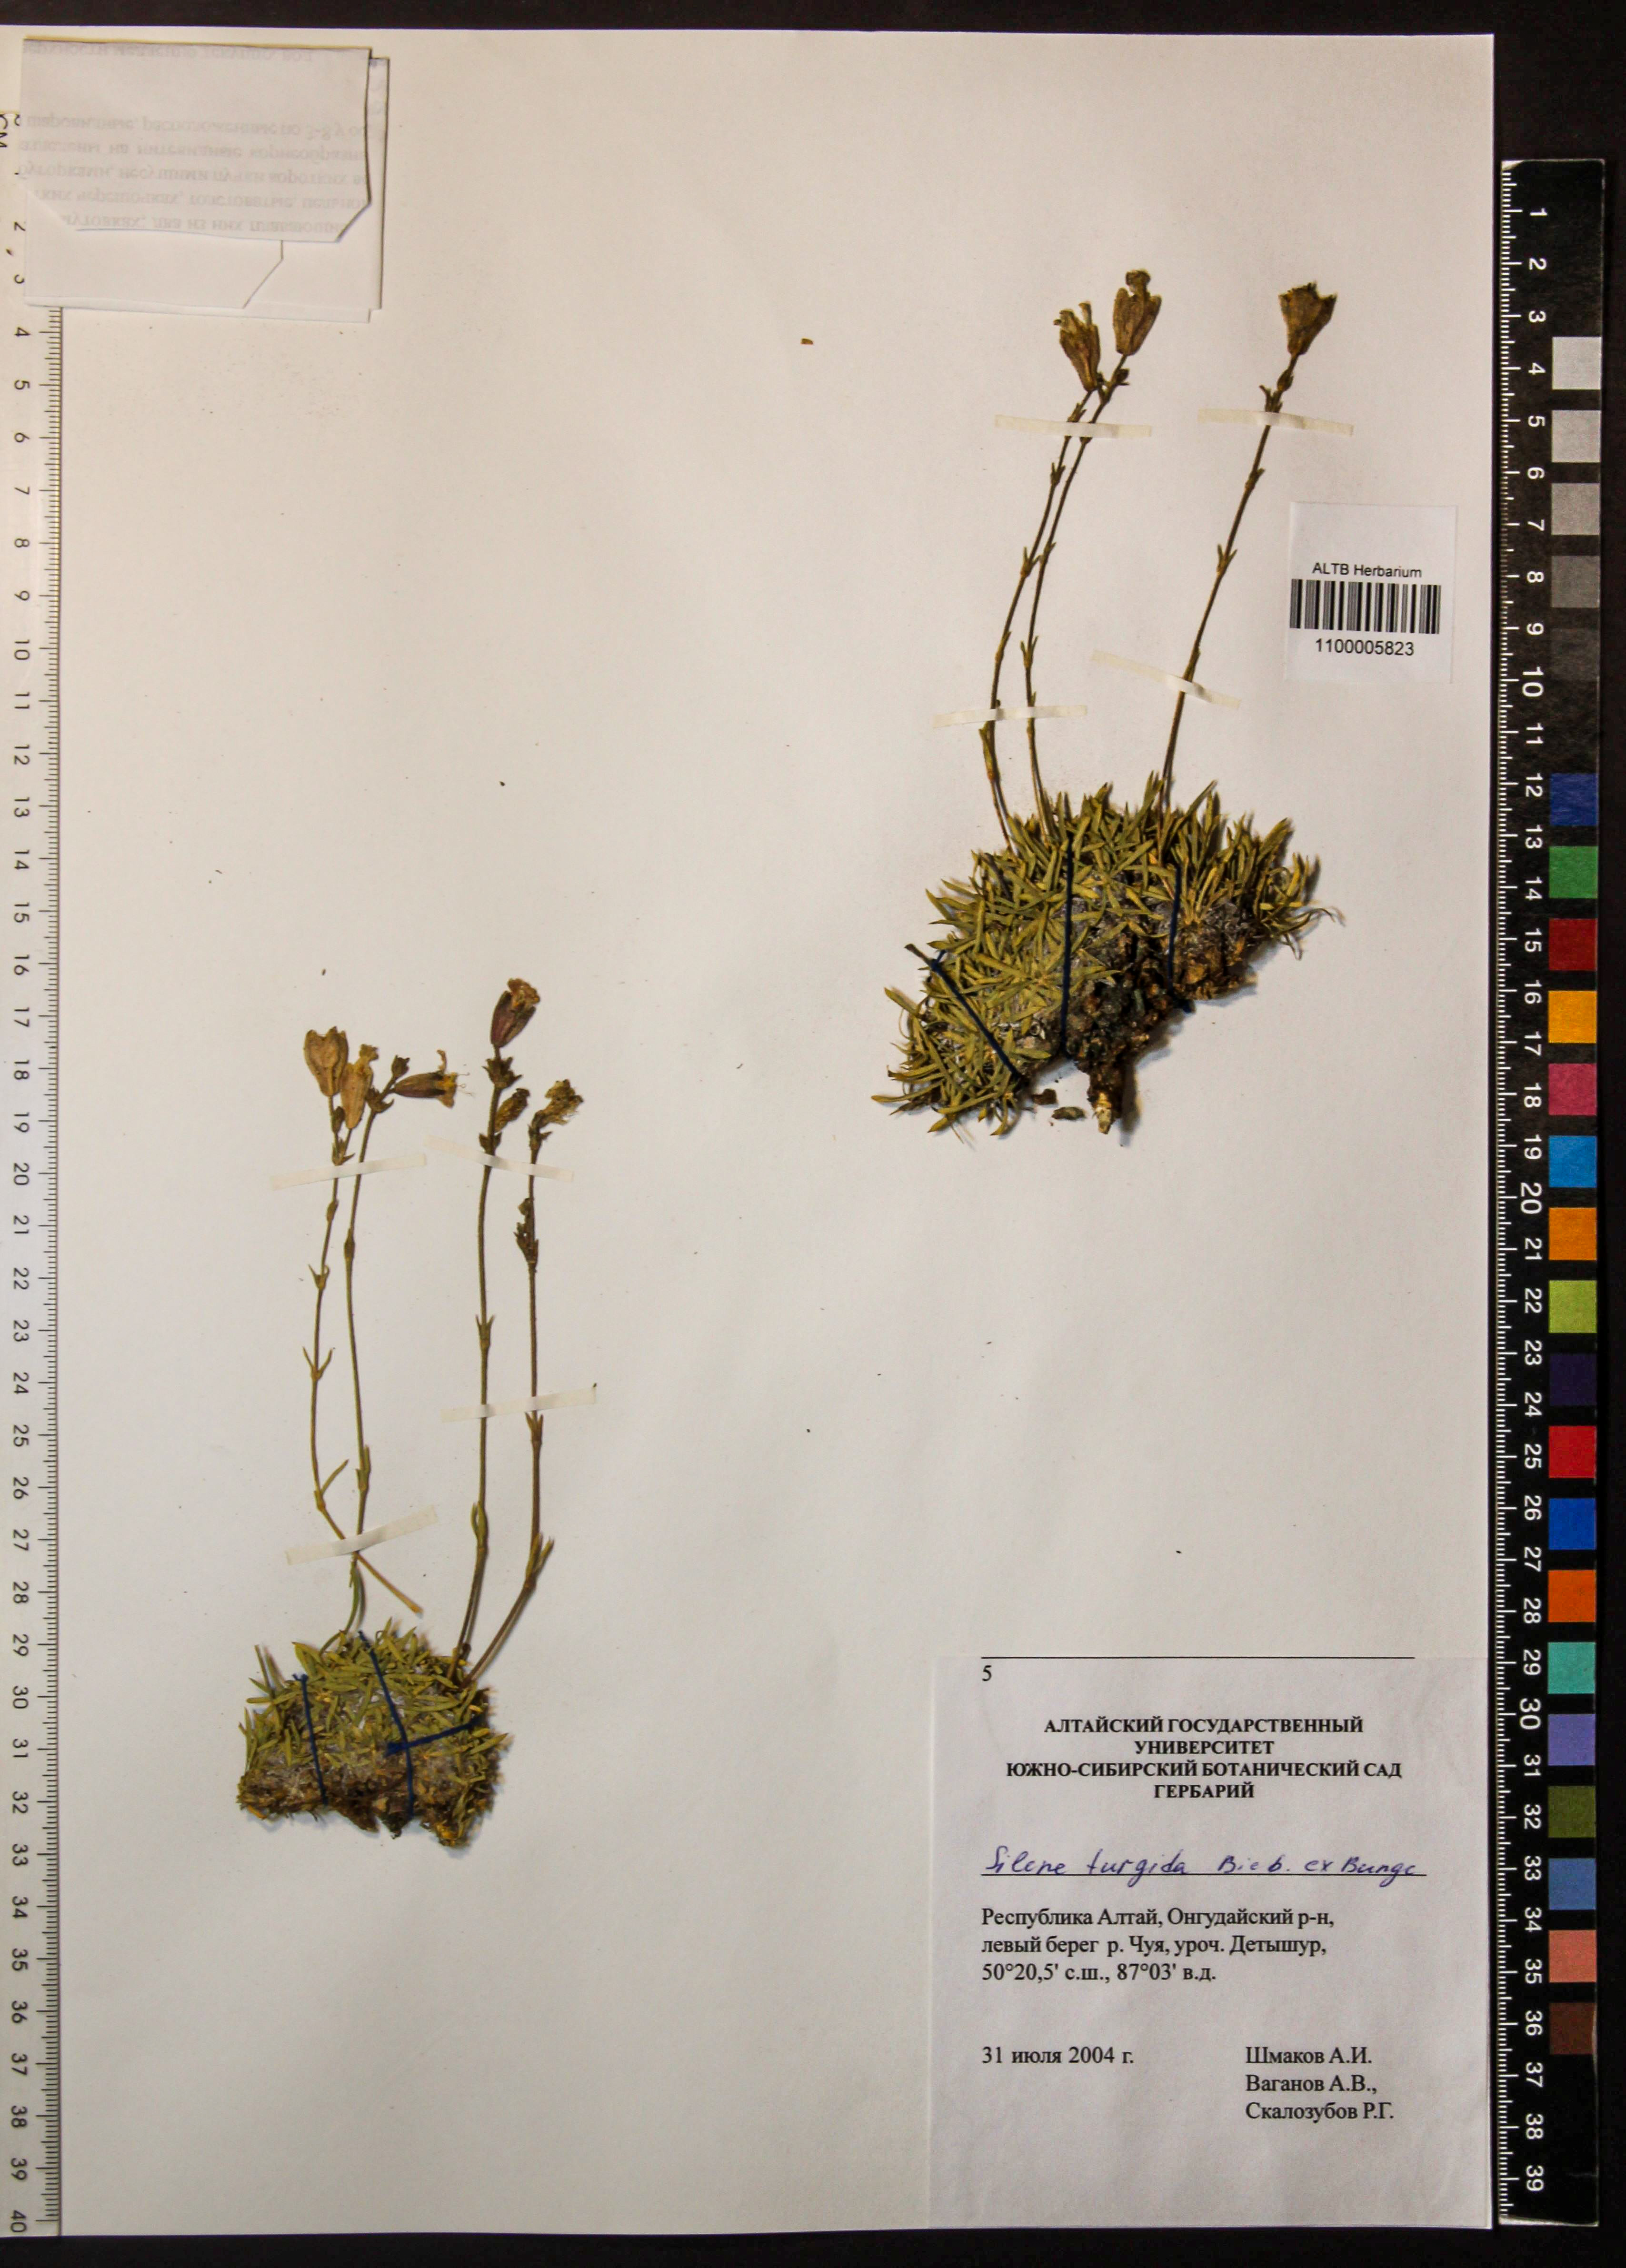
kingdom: Plantae
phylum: Tracheophyta
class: Magnoliopsida
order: Caryophyllales
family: Caryophyllaceae
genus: Silene
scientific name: Silene turgida
